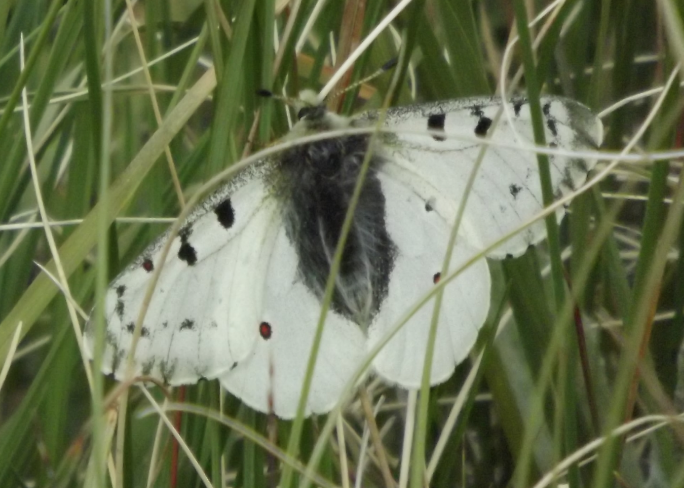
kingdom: Animalia
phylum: Arthropoda
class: Insecta
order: Lepidoptera
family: Papilionidae
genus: Parnassius
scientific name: Parnassius smintheus
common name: Rocky Mountain Parnassian
